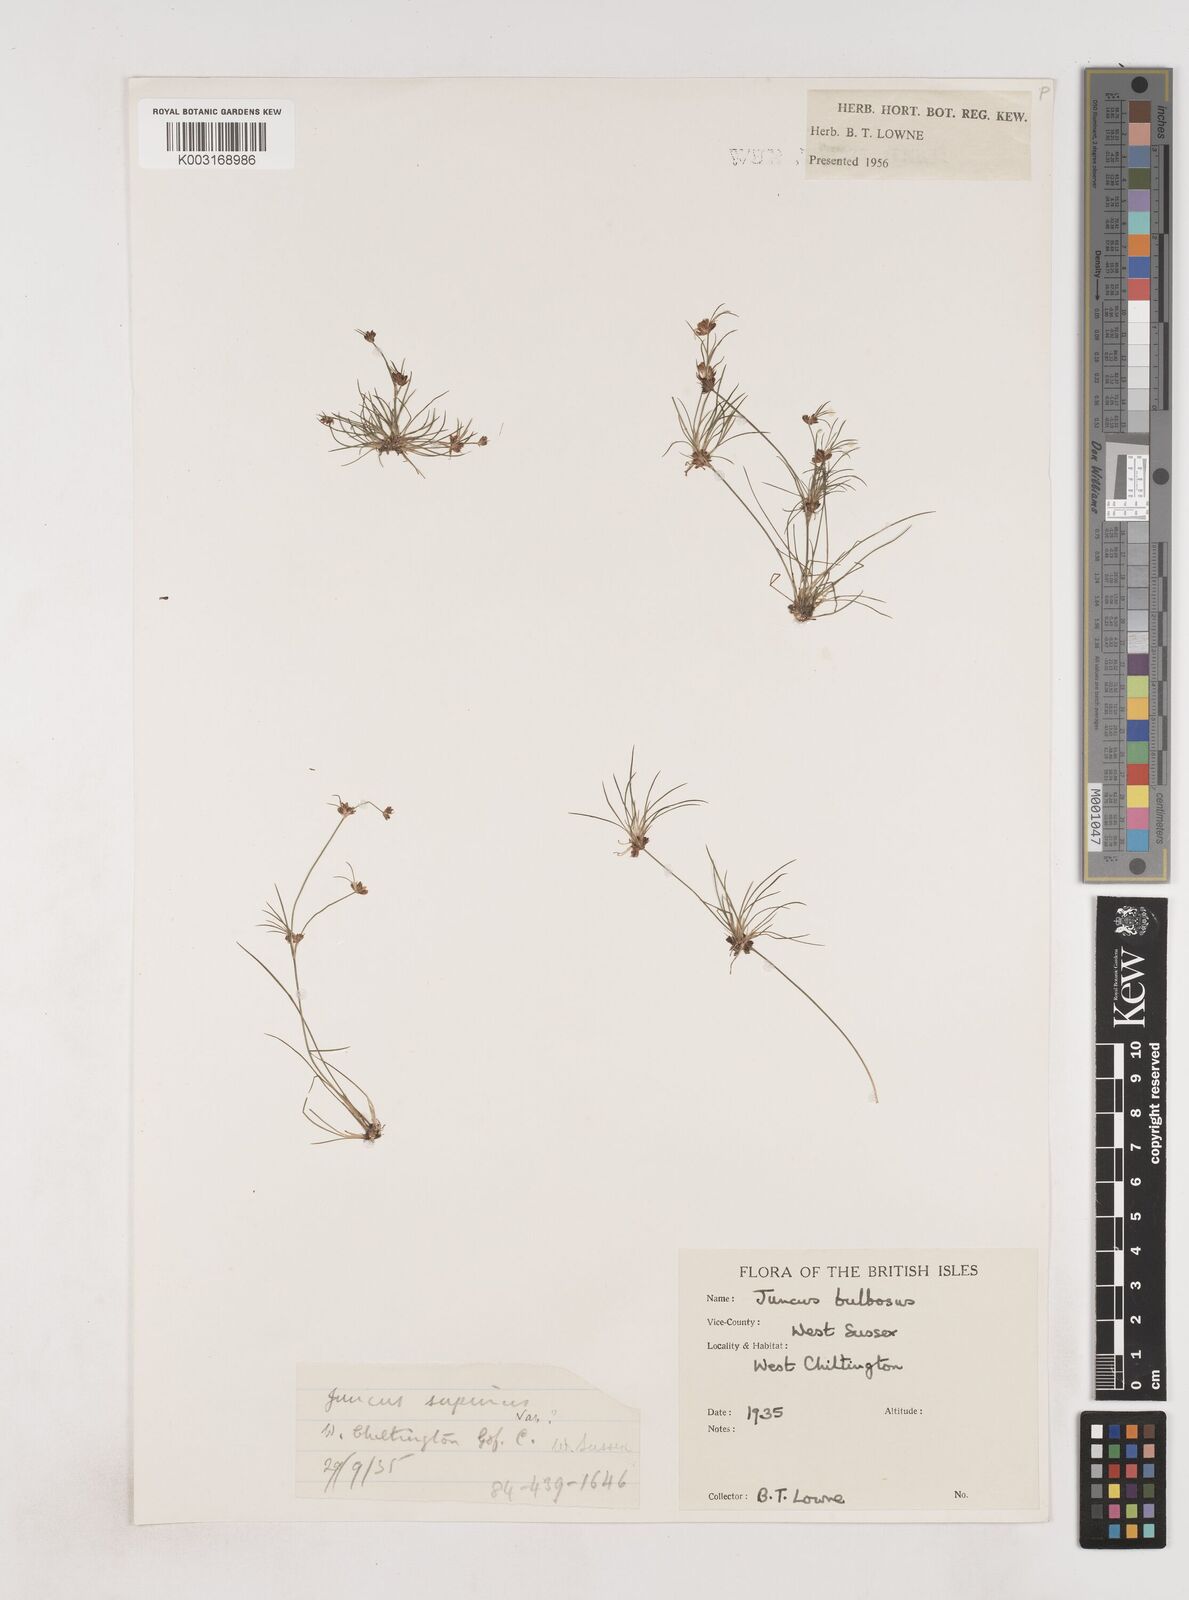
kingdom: Plantae
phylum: Tracheophyta
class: Liliopsida
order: Poales
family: Juncaceae
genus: Juncus
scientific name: Juncus bulbosus
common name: Bulbous rush
